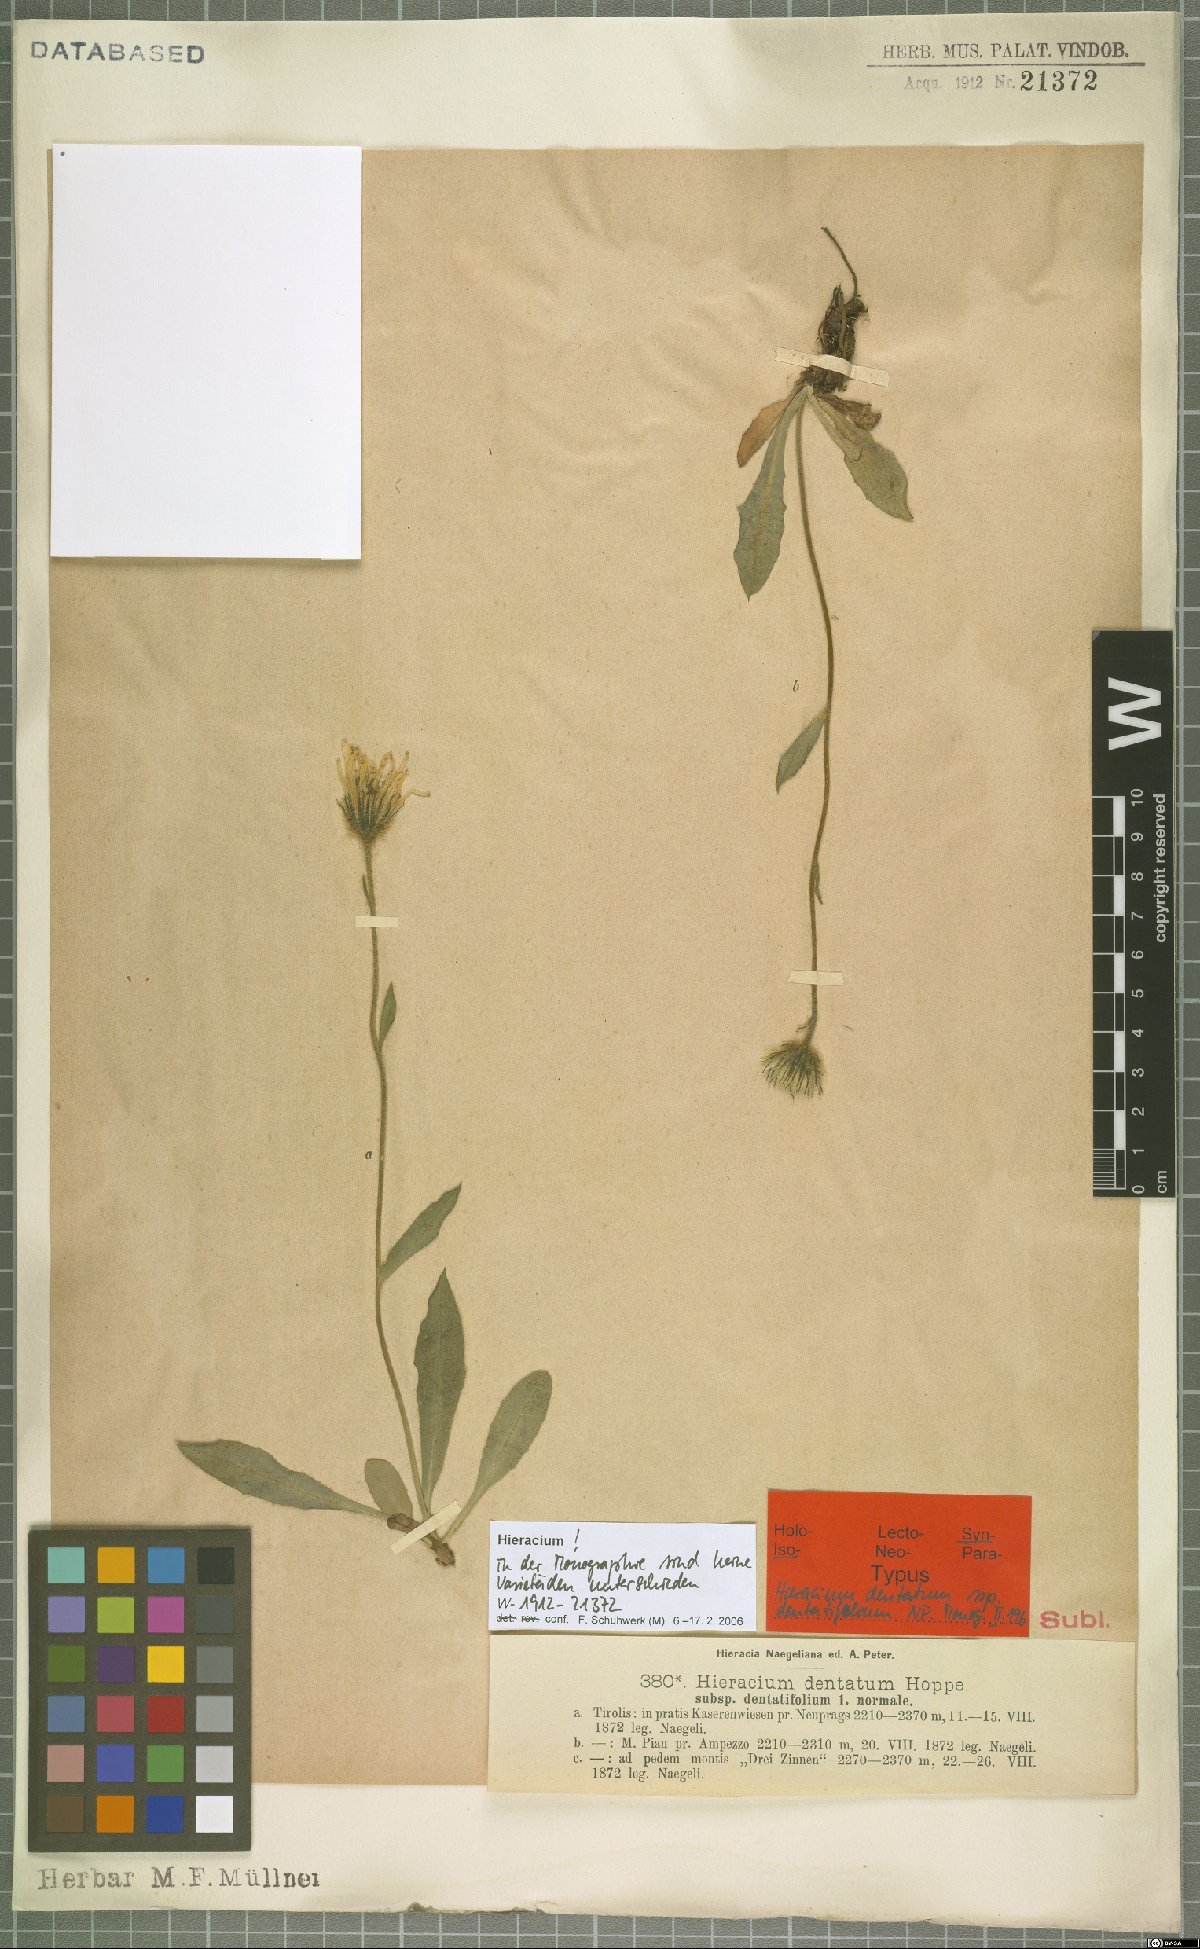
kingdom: Plantae
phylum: Tracheophyta
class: Magnoliopsida
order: Asterales
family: Asteraceae
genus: Hieracium
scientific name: Hieracium dentatum
